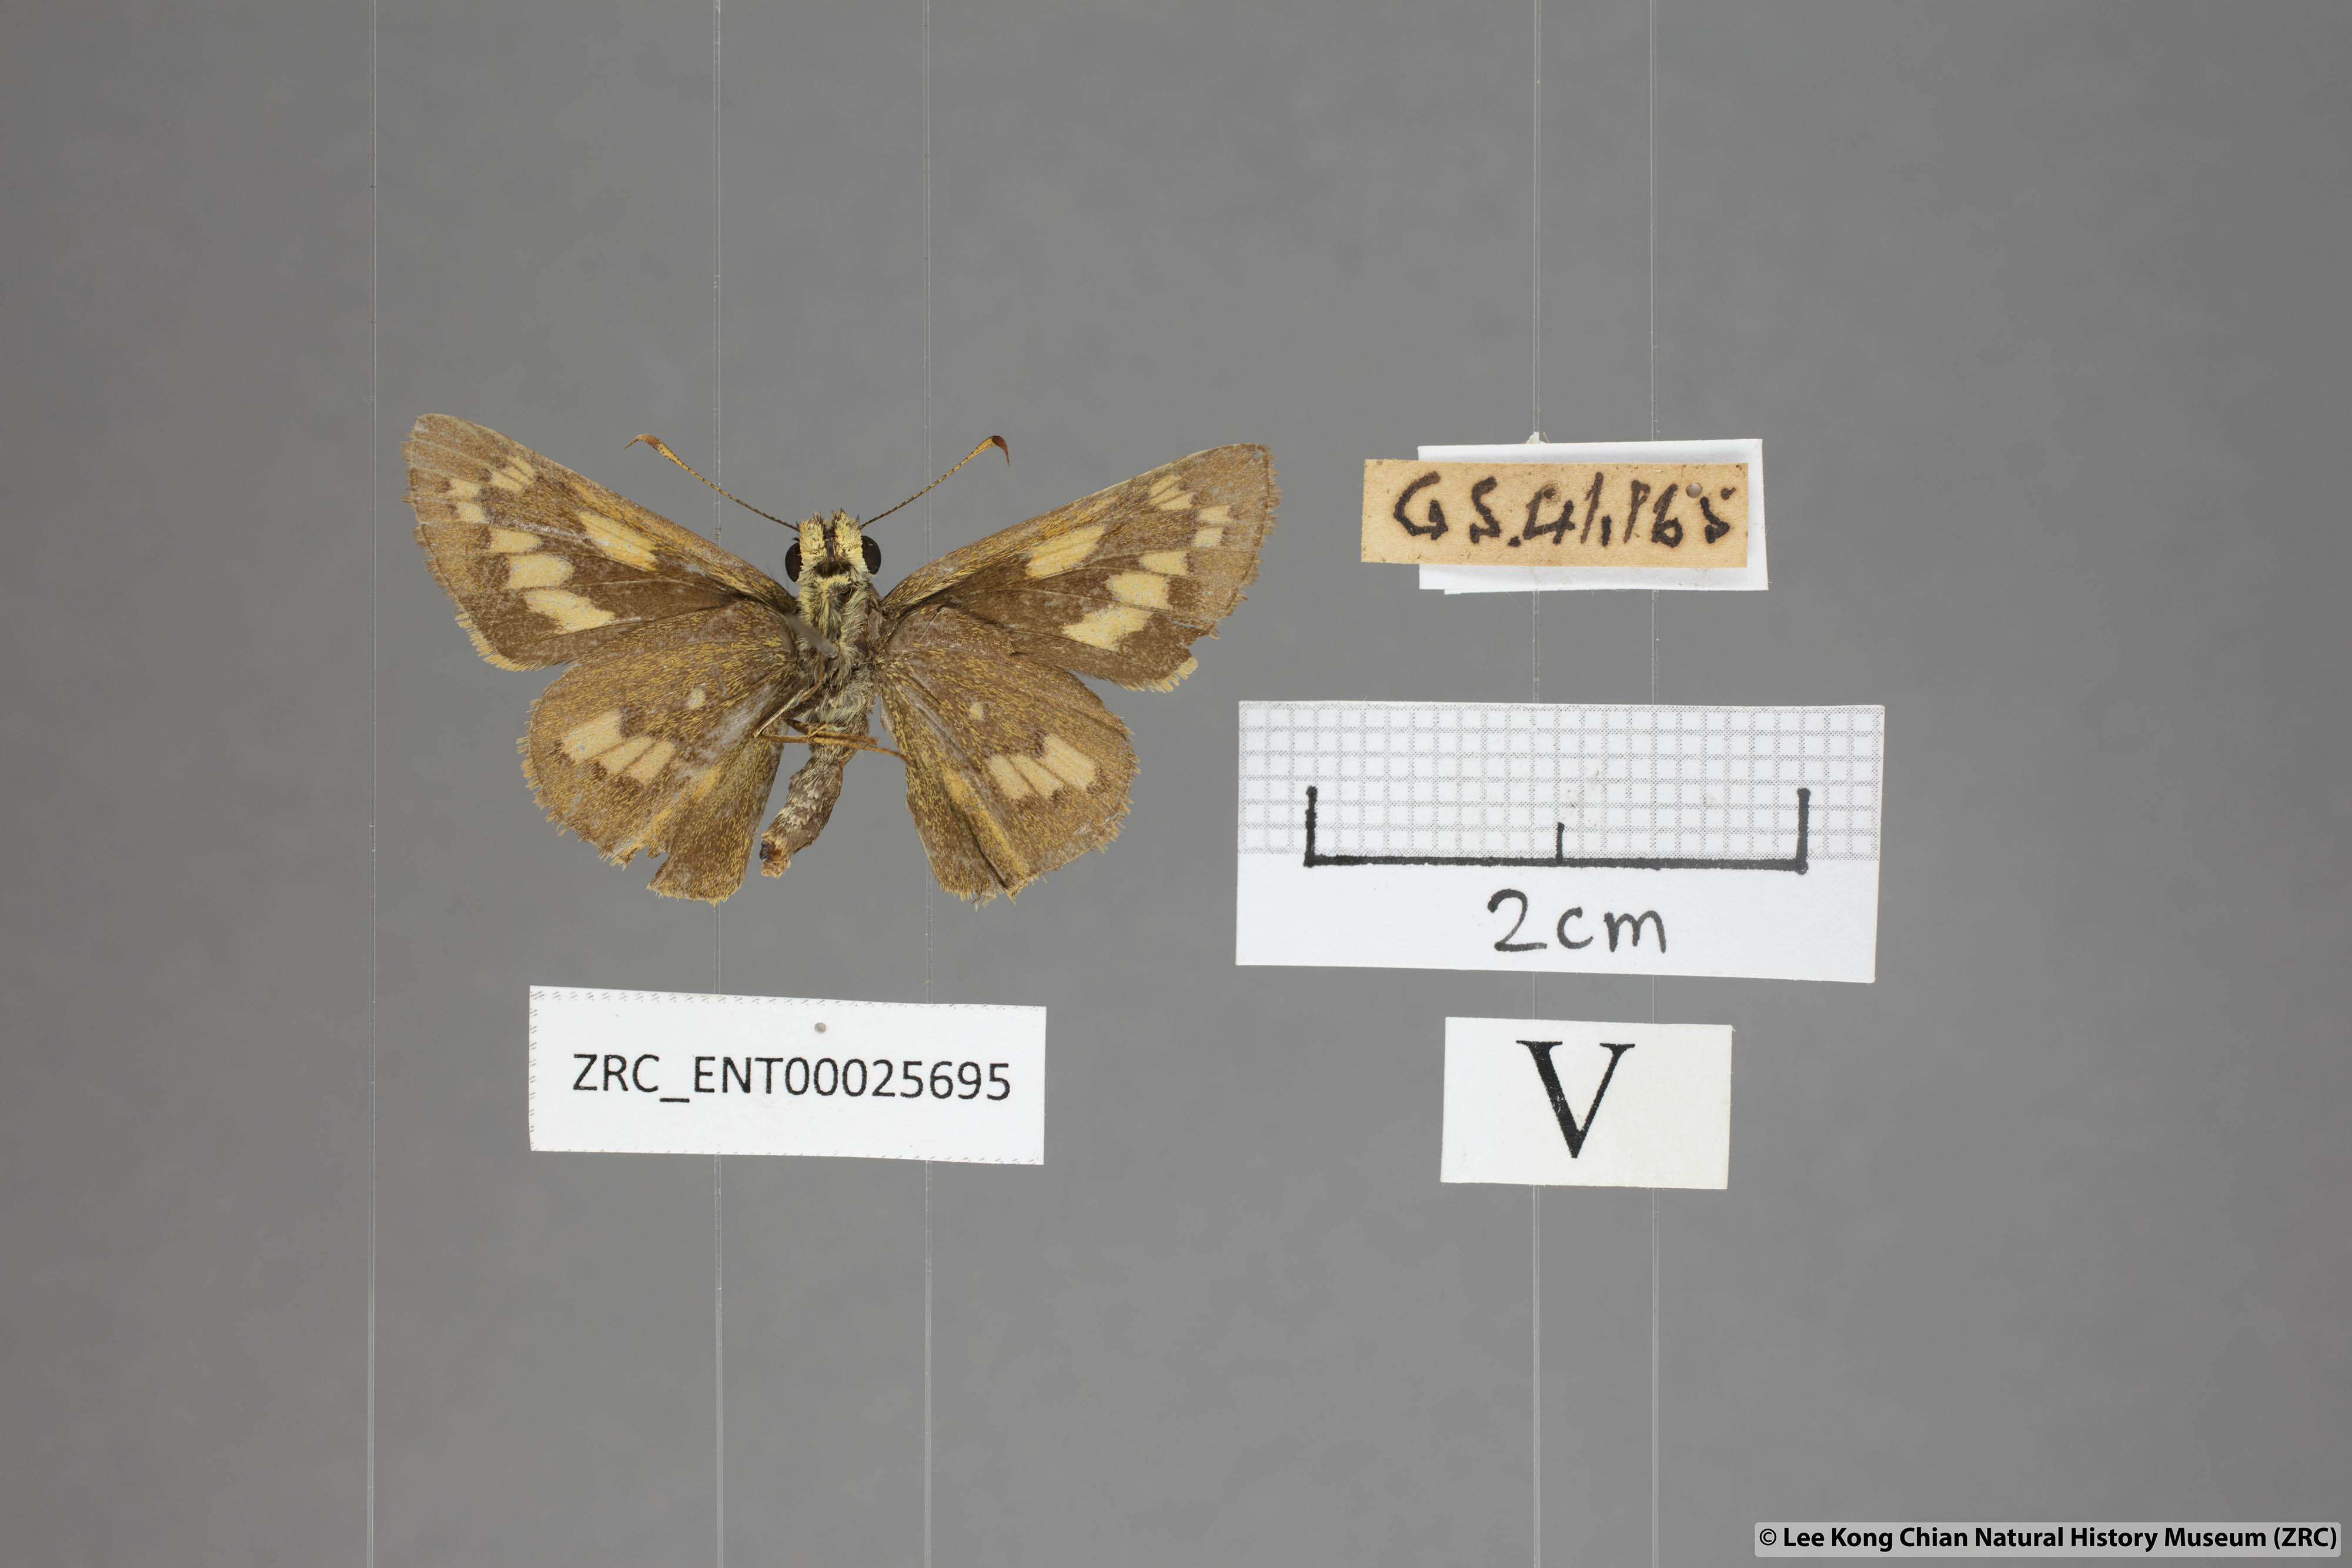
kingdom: Animalia
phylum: Arthropoda
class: Insecta
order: Lepidoptera
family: Hesperiidae
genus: Telicota
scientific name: Telicota ohara
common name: Dark palm dart
